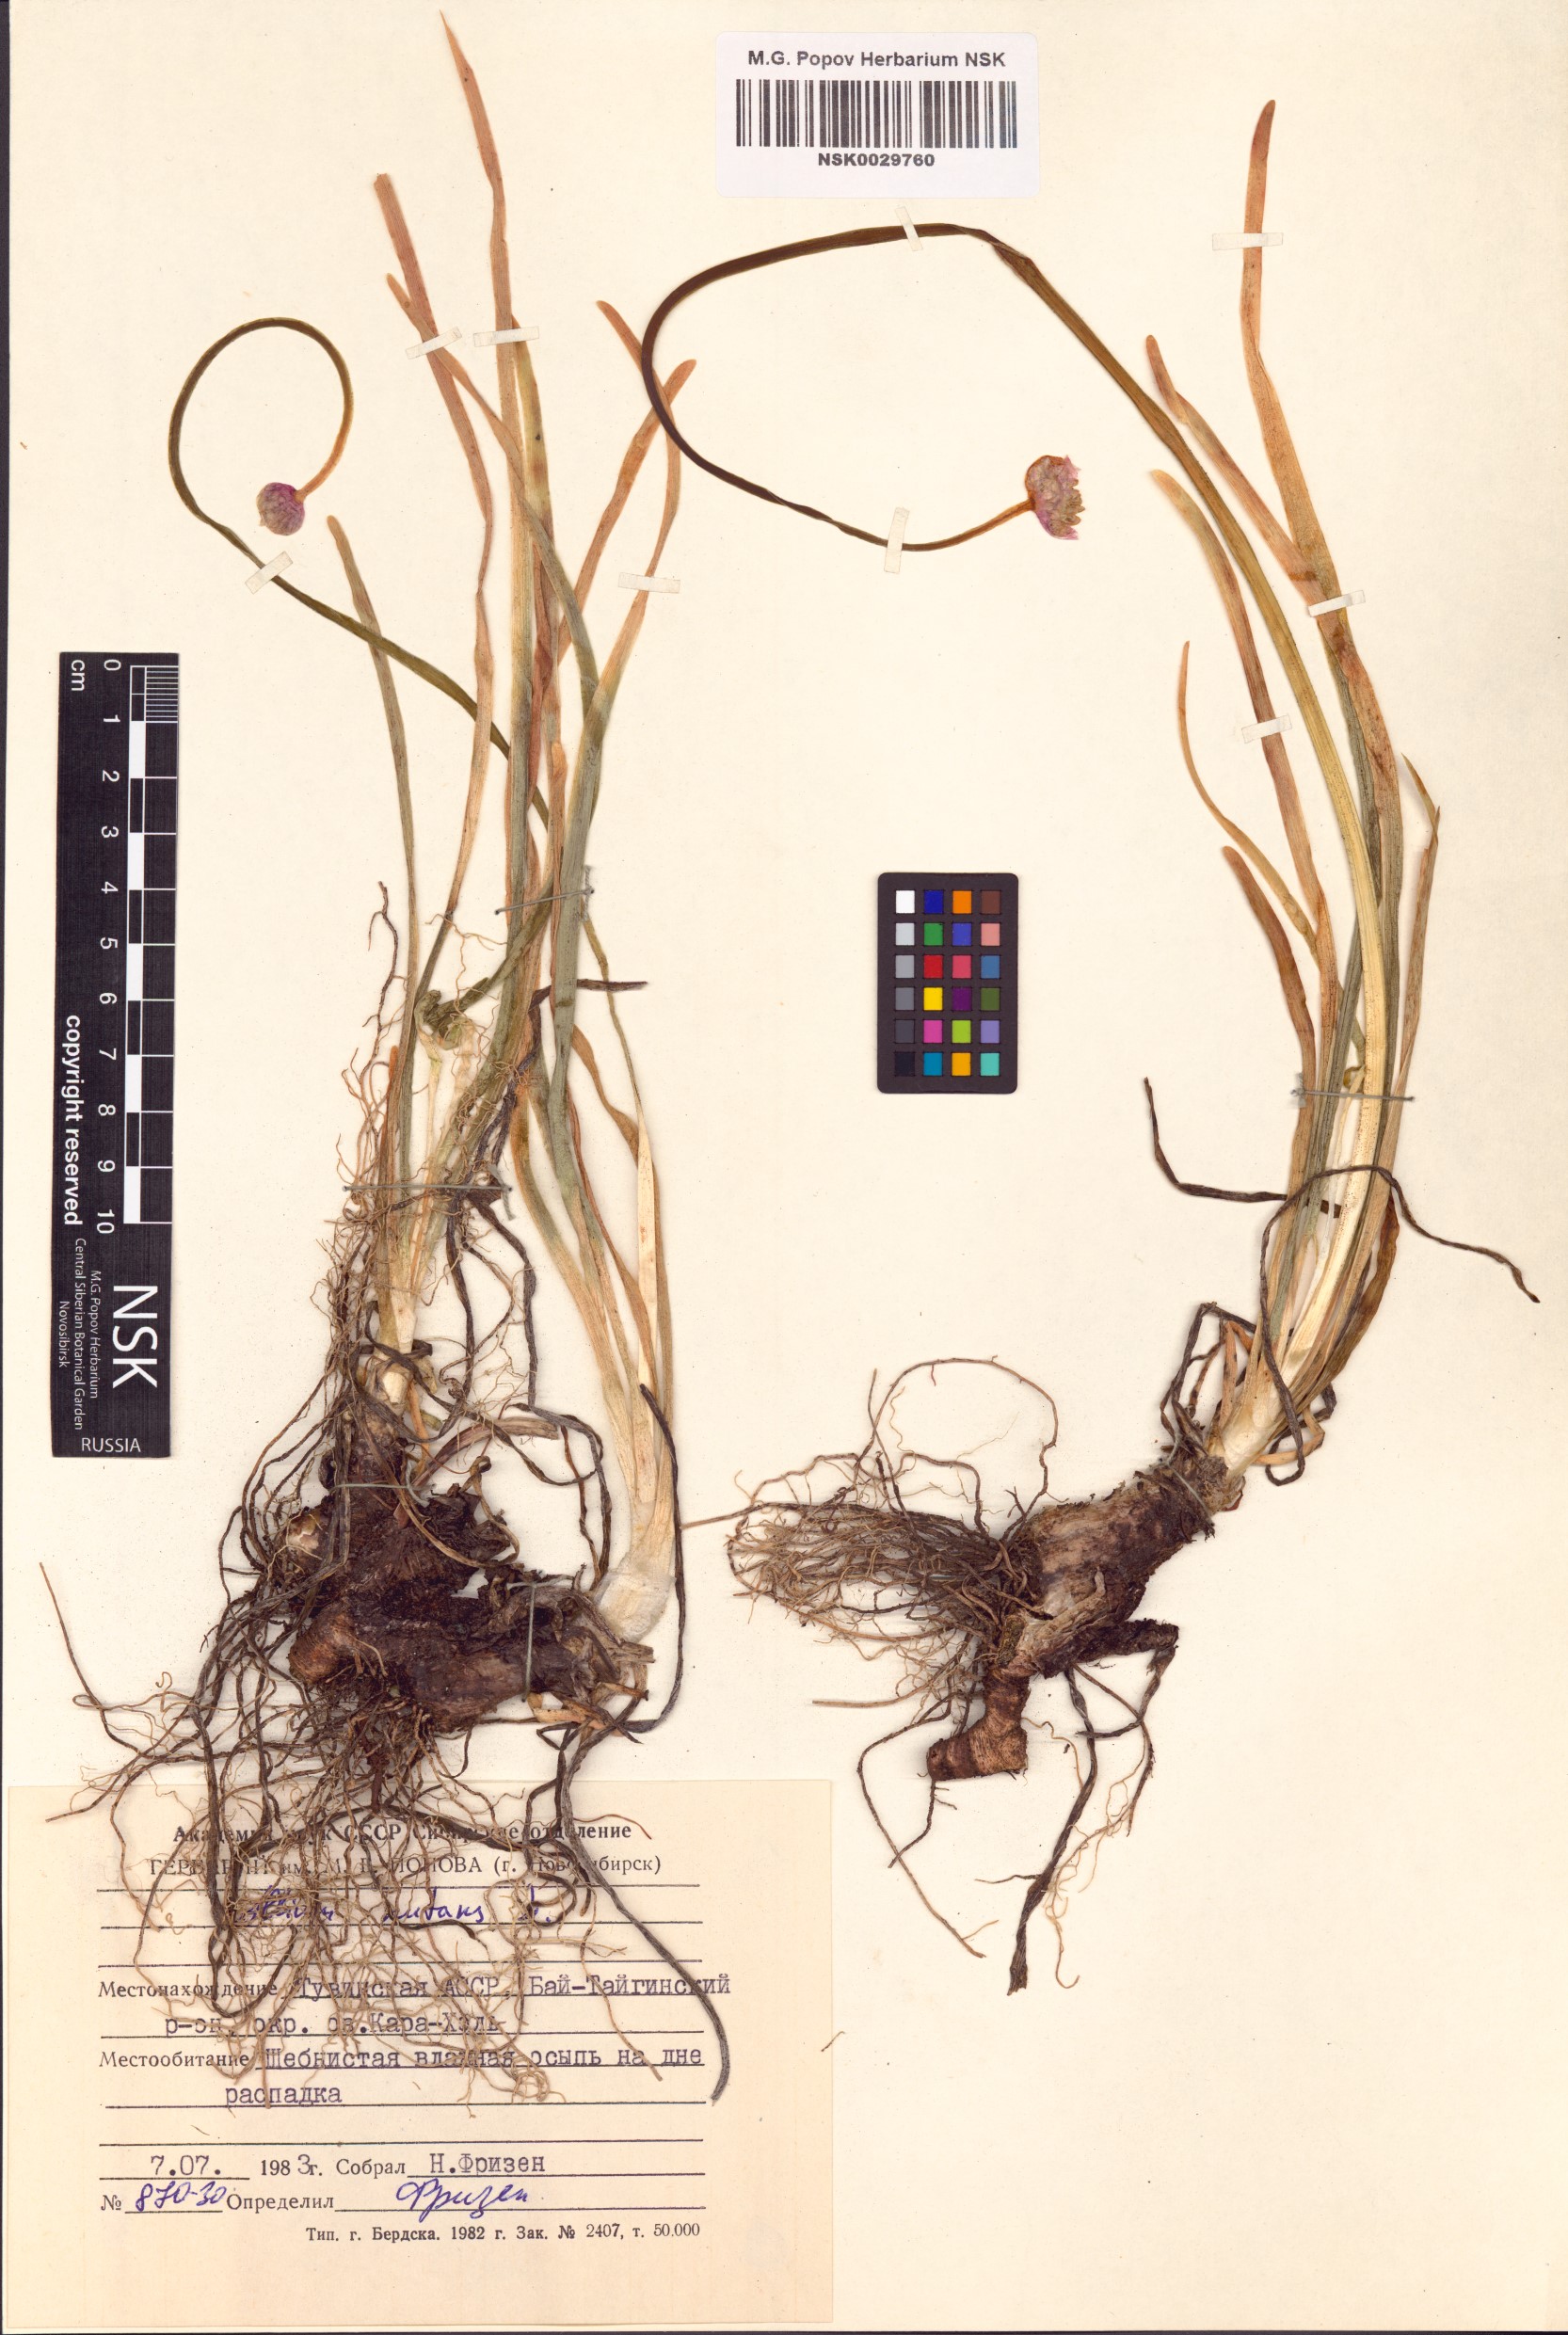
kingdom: Plantae
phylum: Tracheophyta
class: Liliopsida
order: Asparagales
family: Amaryllidaceae
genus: Allium
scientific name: Allium nutans
